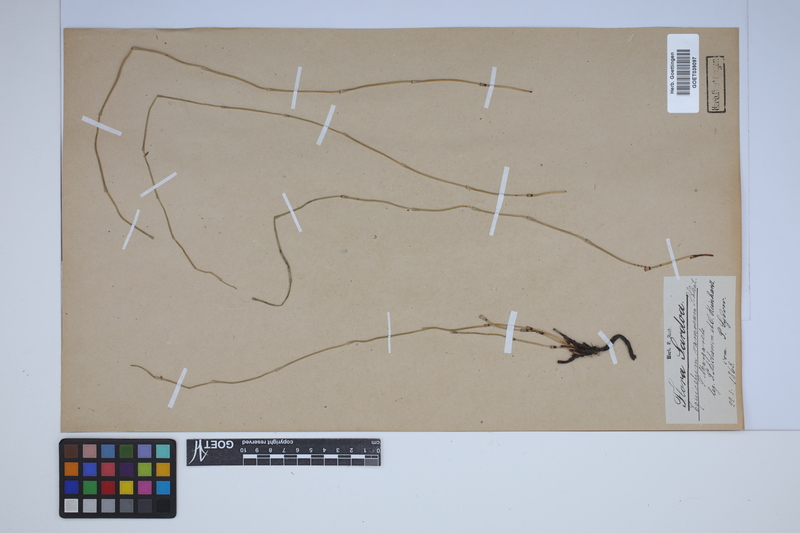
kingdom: Plantae
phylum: Tracheophyta
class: Polypodiopsida
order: Equisetales
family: Equisetaceae
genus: Equisetum
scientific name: Equisetum giganteum
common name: Giant horsetail
